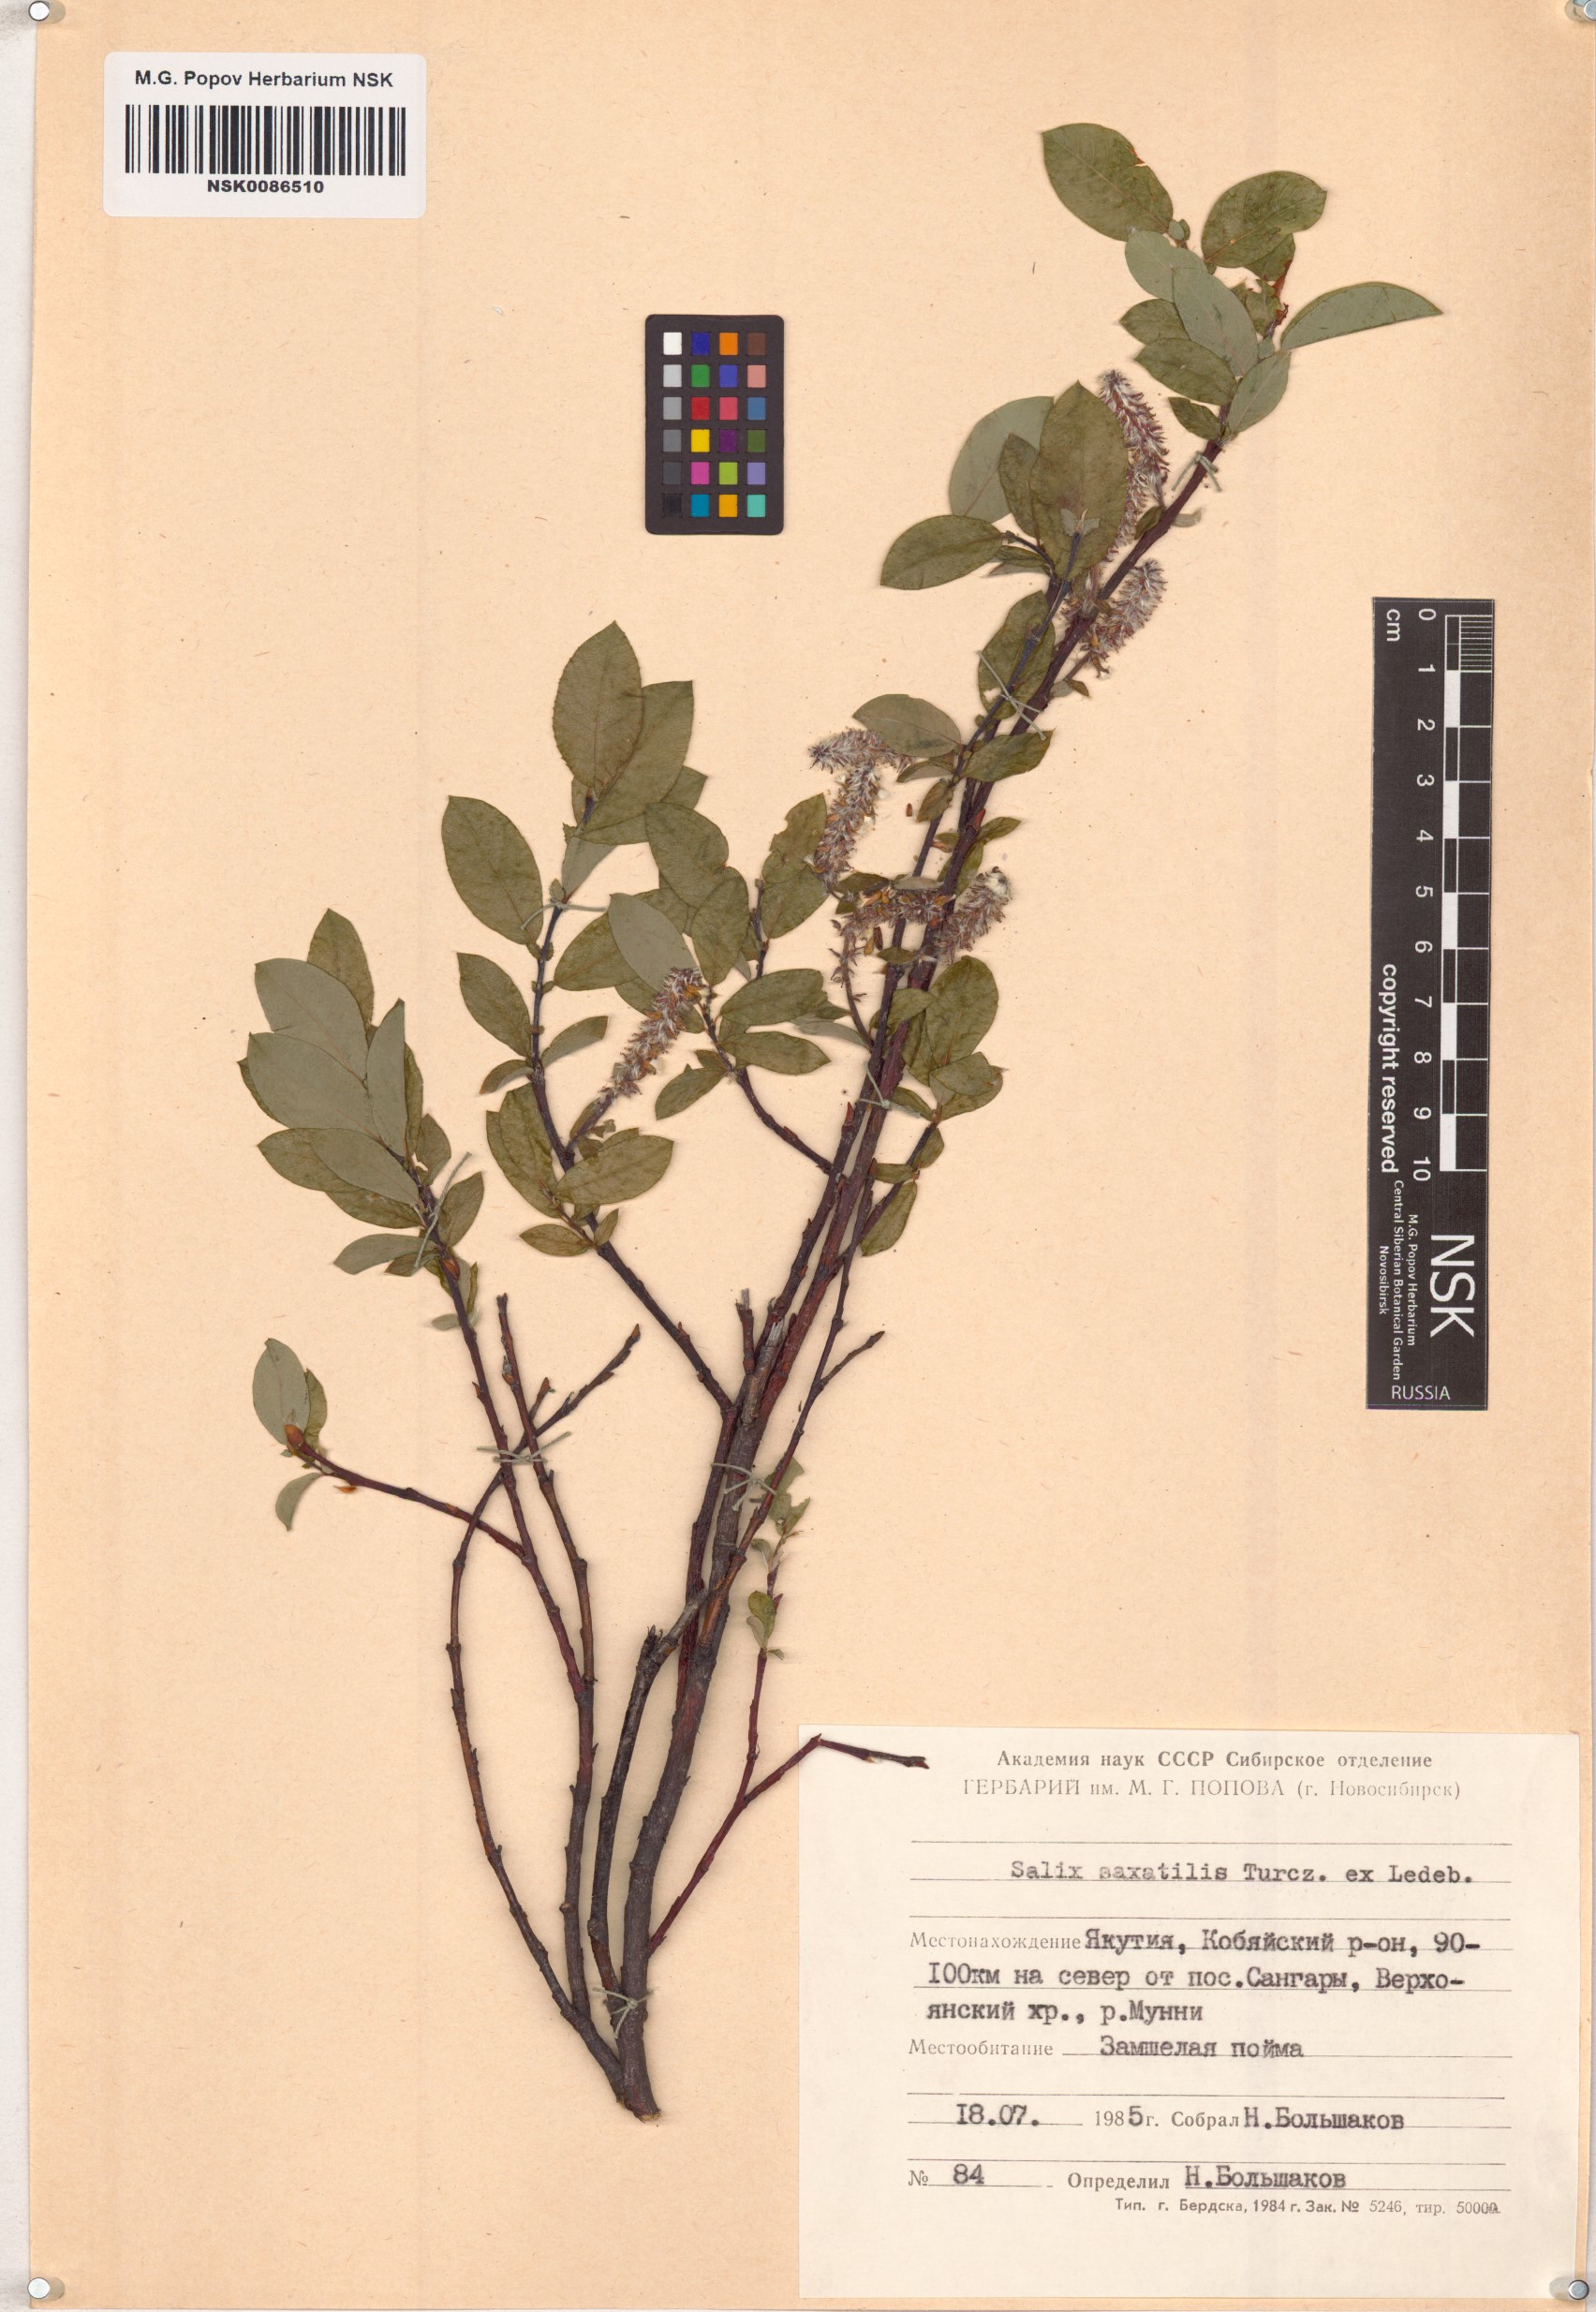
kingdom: Plantae
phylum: Tracheophyta
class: Magnoliopsida
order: Malpighiales
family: Salicaceae
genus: Salix
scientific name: Salix saxatilis
